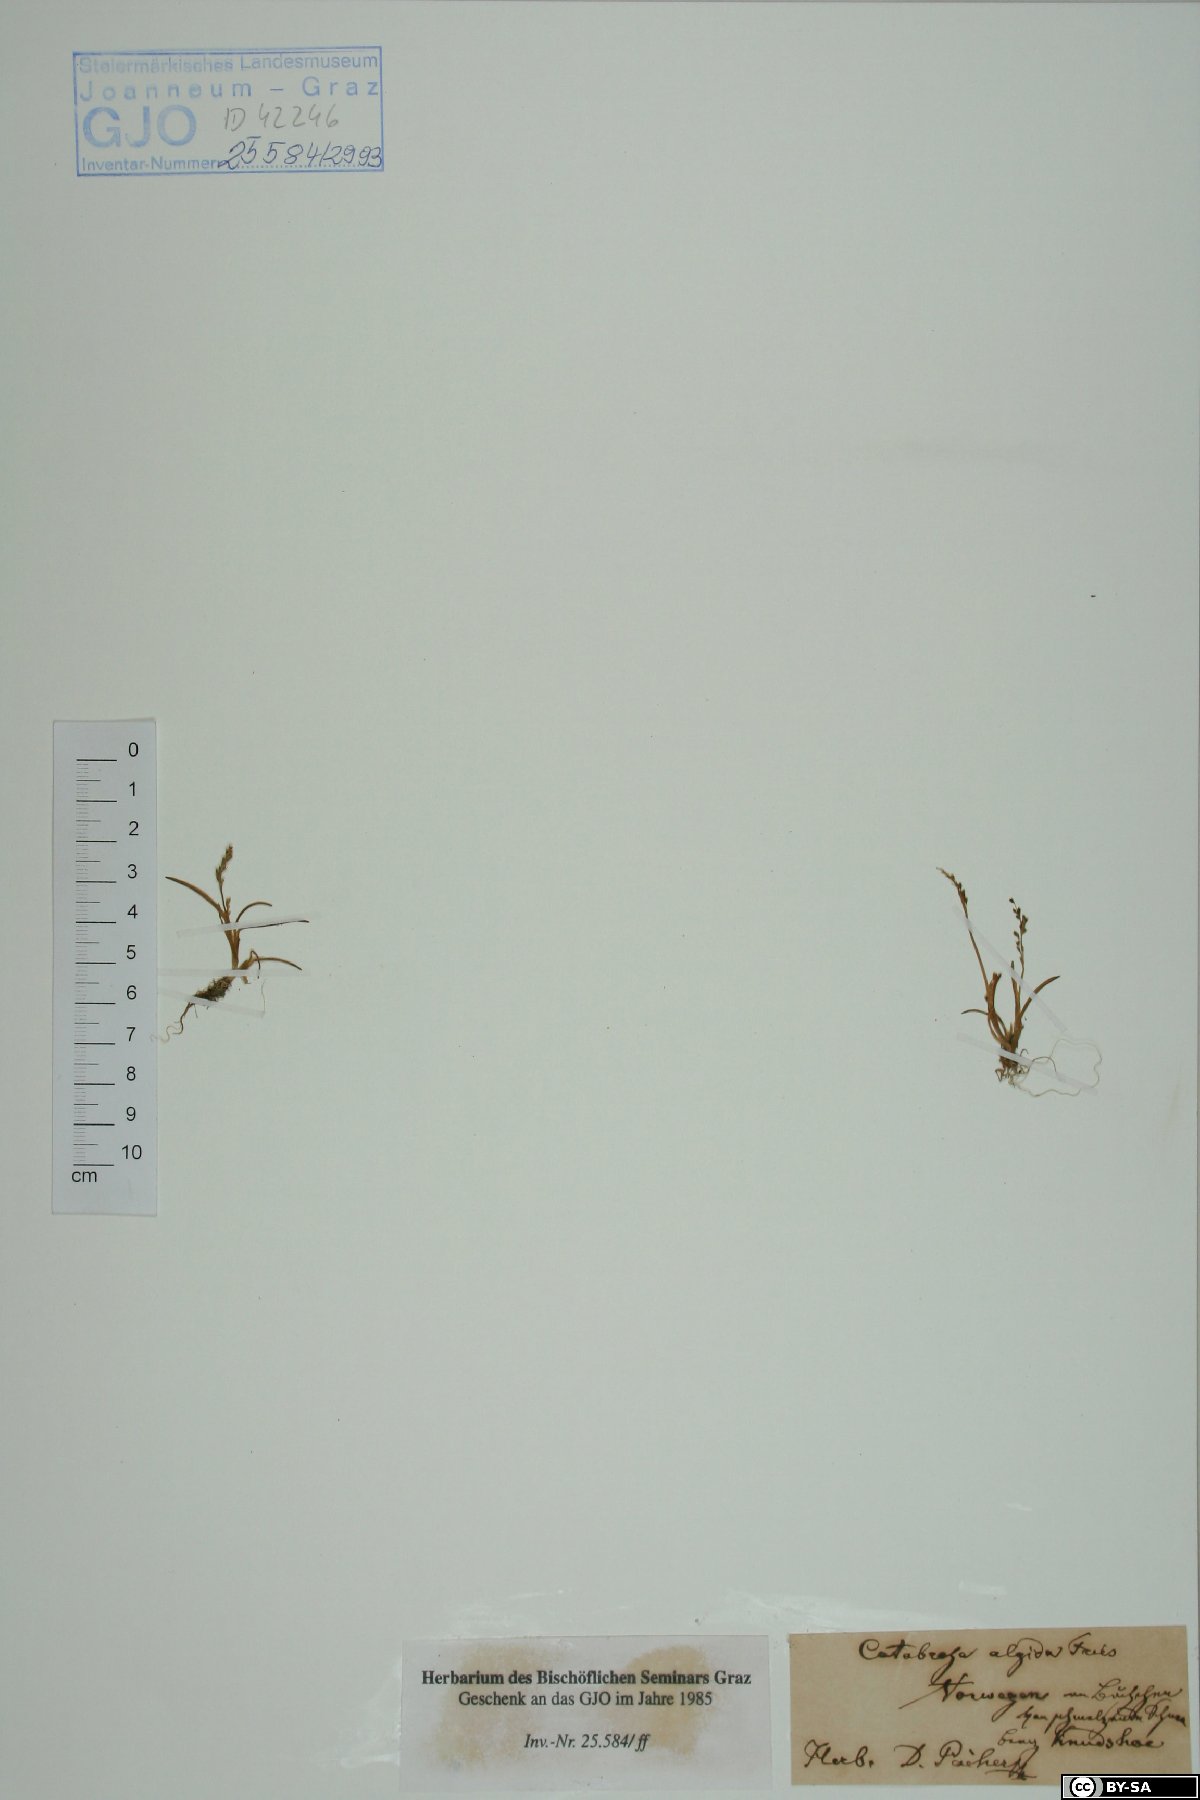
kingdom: Plantae
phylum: Tracheophyta
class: Liliopsida
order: Poales
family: Poaceae
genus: Phippsia
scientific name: Phippsia algida
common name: Ice grass
